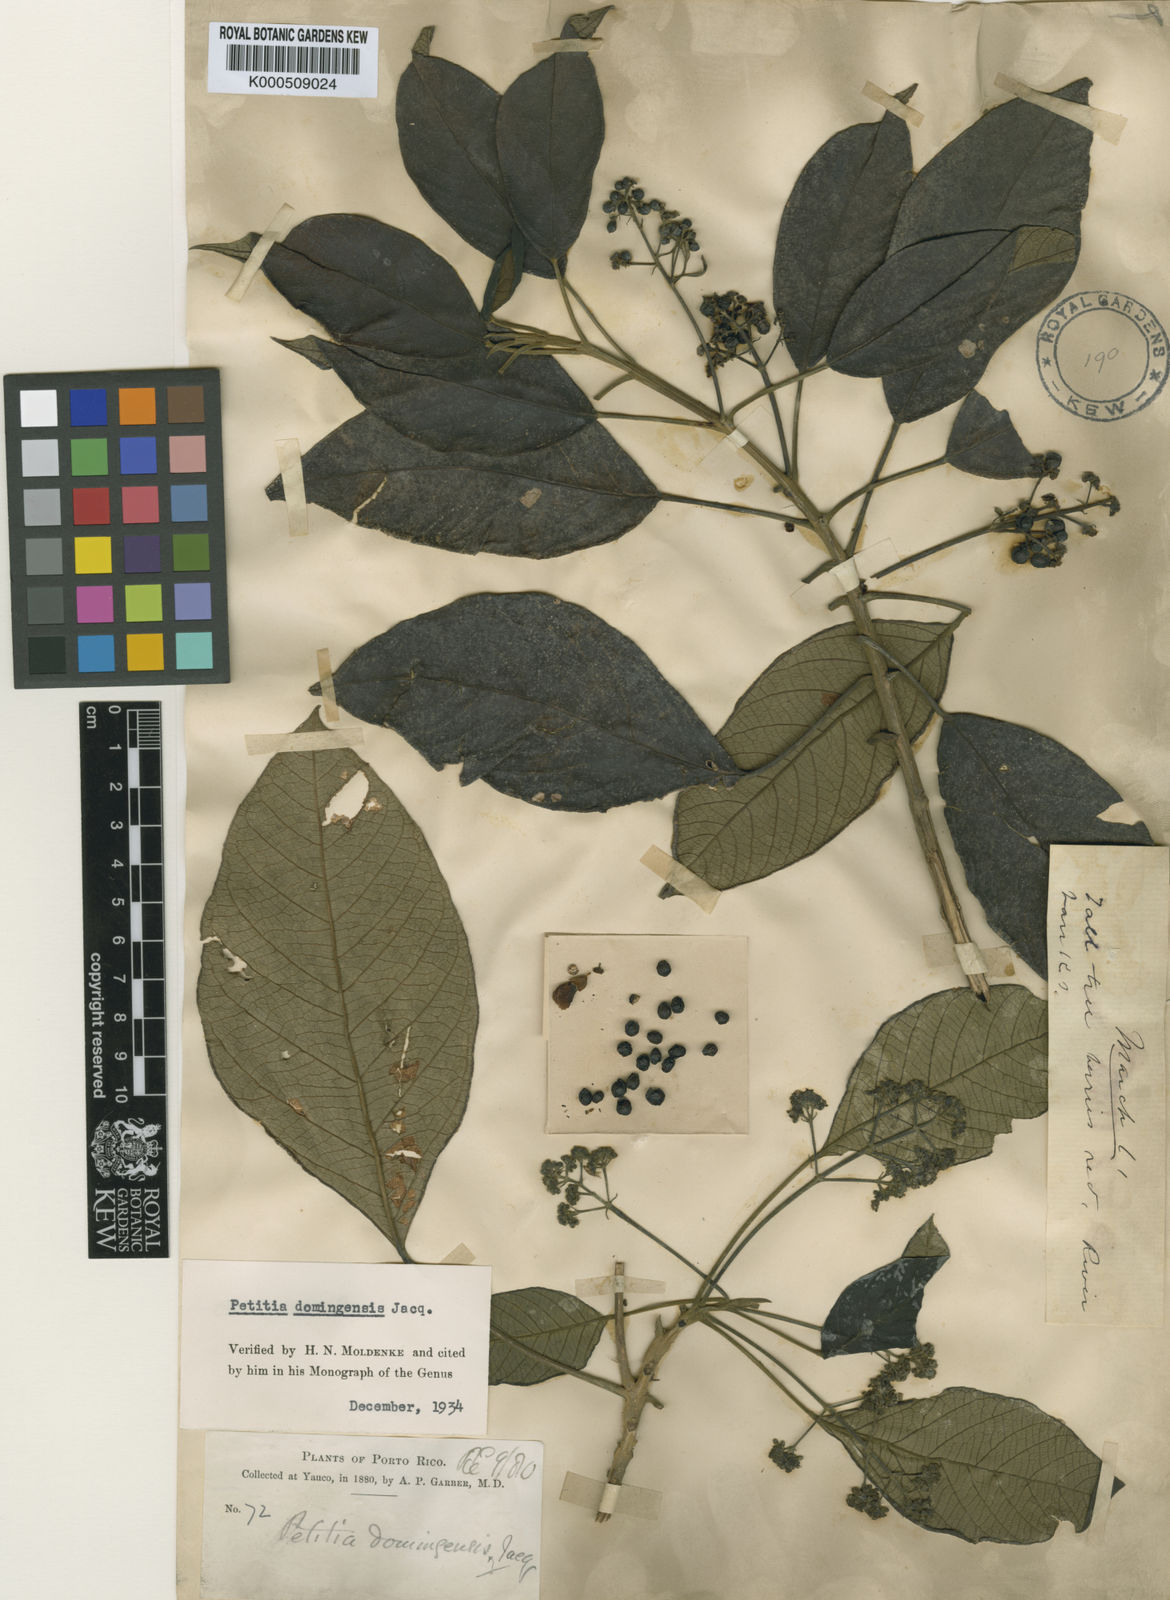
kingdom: Plantae
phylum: Tracheophyta
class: Magnoliopsida
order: Lamiales
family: Lamiaceae
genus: Petitia
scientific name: Petitia domingensis
